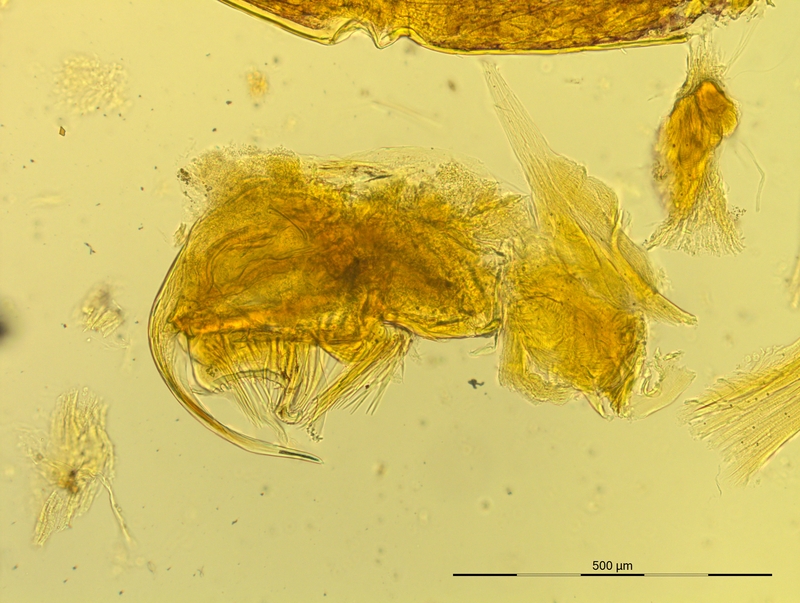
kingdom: Animalia
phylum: Arthropoda
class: Diplopoda
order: Chordeumatida
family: Craspedosomatidae
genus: Pyrgocyphosoma
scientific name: Pyrgocyphosoma tendanum
